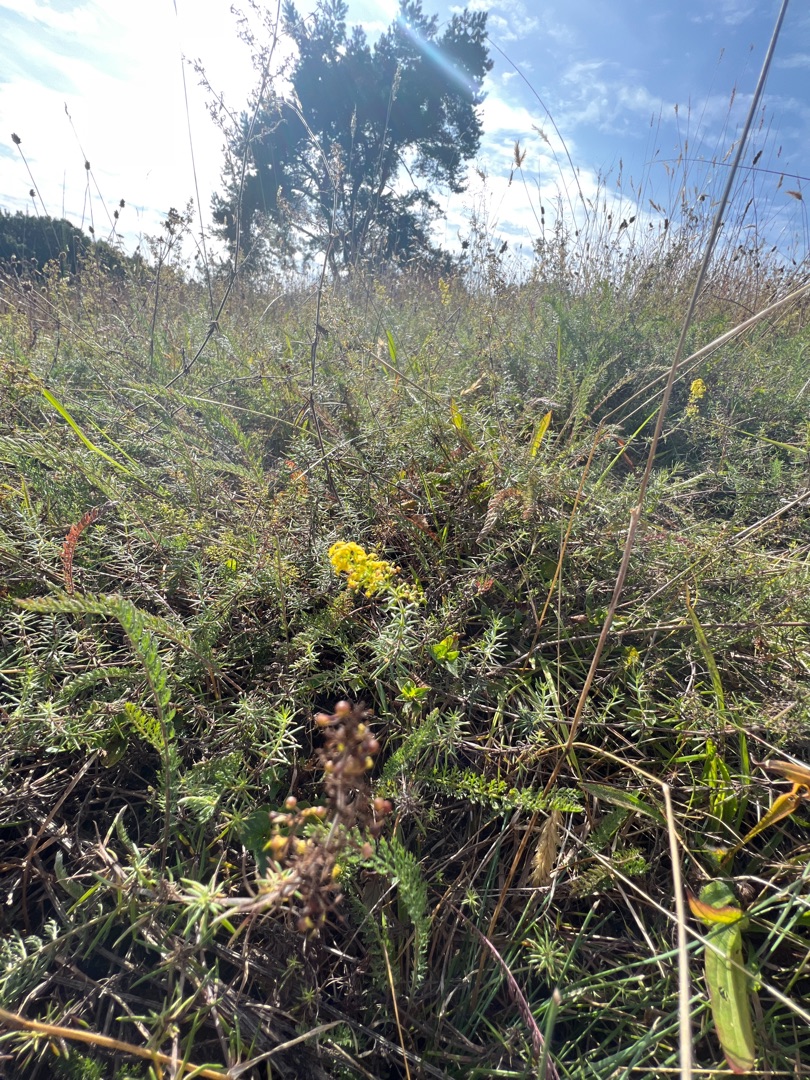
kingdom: Plantae
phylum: Tracheophyta
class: Magnoliopsida
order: Gentianales
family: Rubiaceae
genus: Galium
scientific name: Galium verum
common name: Gul snerre
